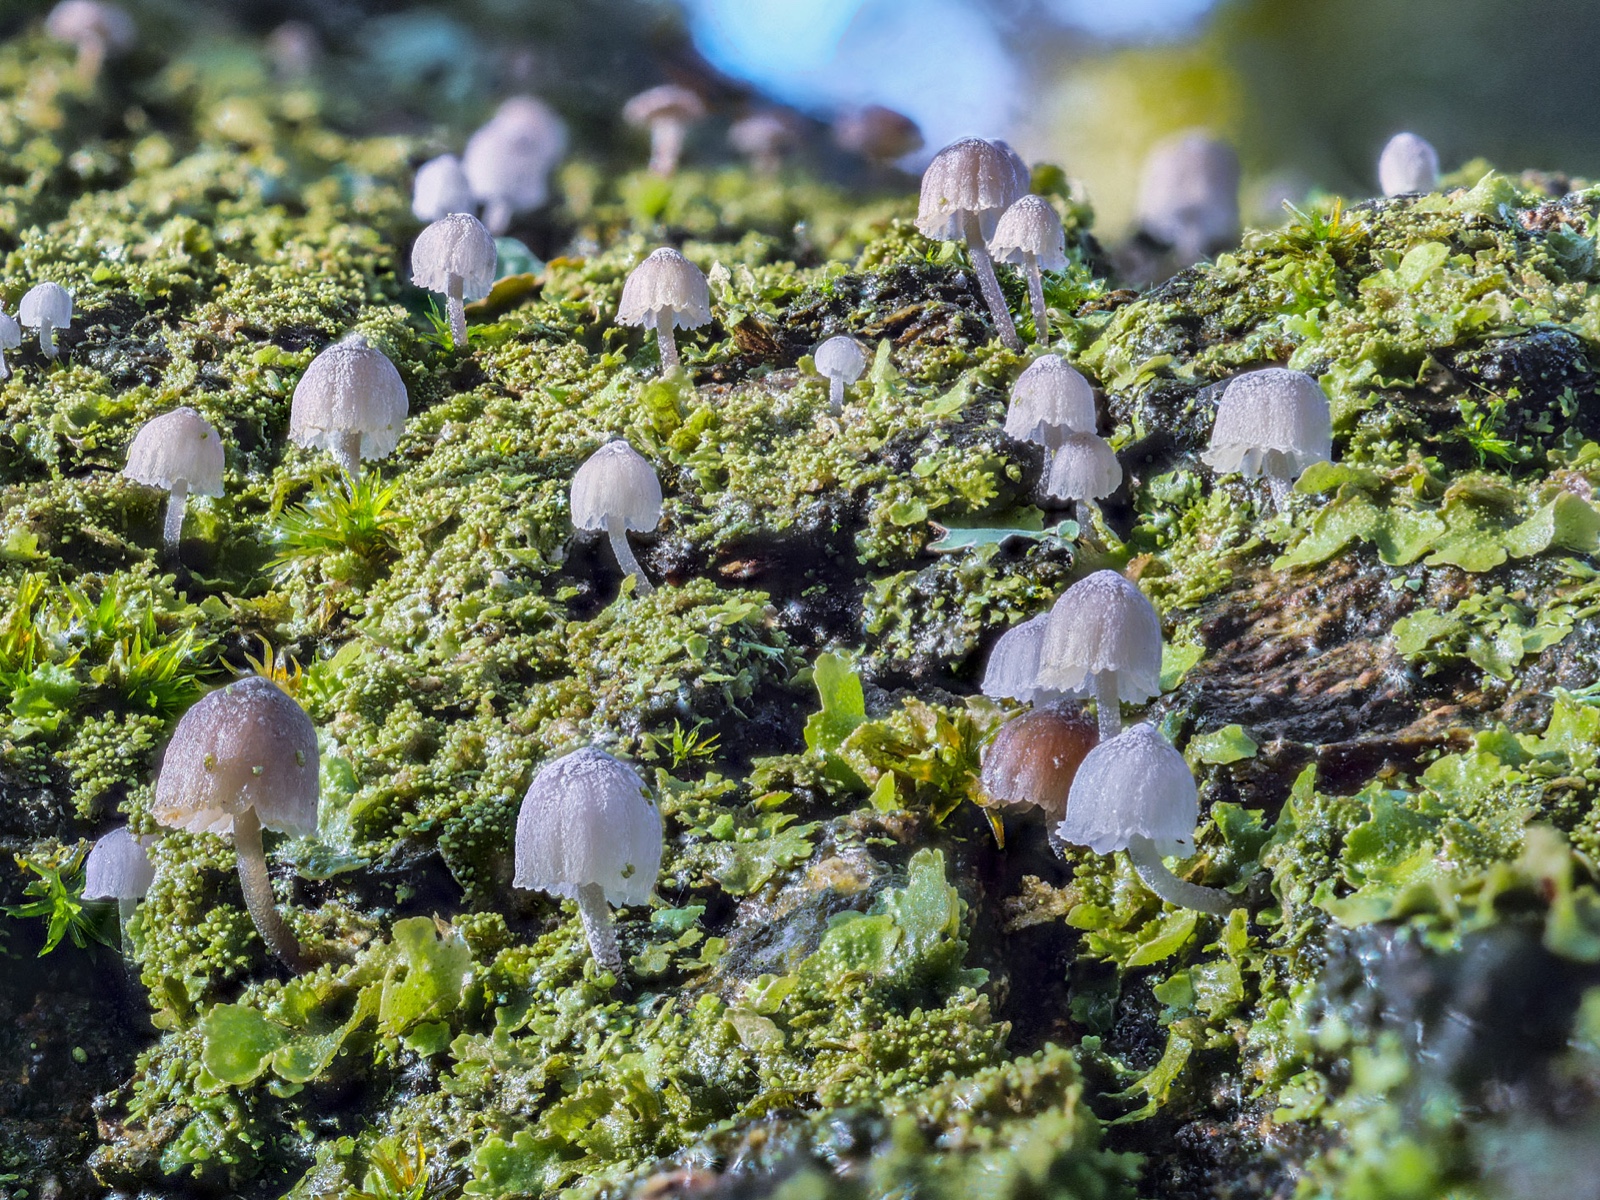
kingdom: Fungi
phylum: Basidiomycota
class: Agaricomycetes
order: Agaricales
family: Mycenaceae
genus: Mycena
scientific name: Mycena pseudocorticola
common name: gråblå bark-huesvamp
